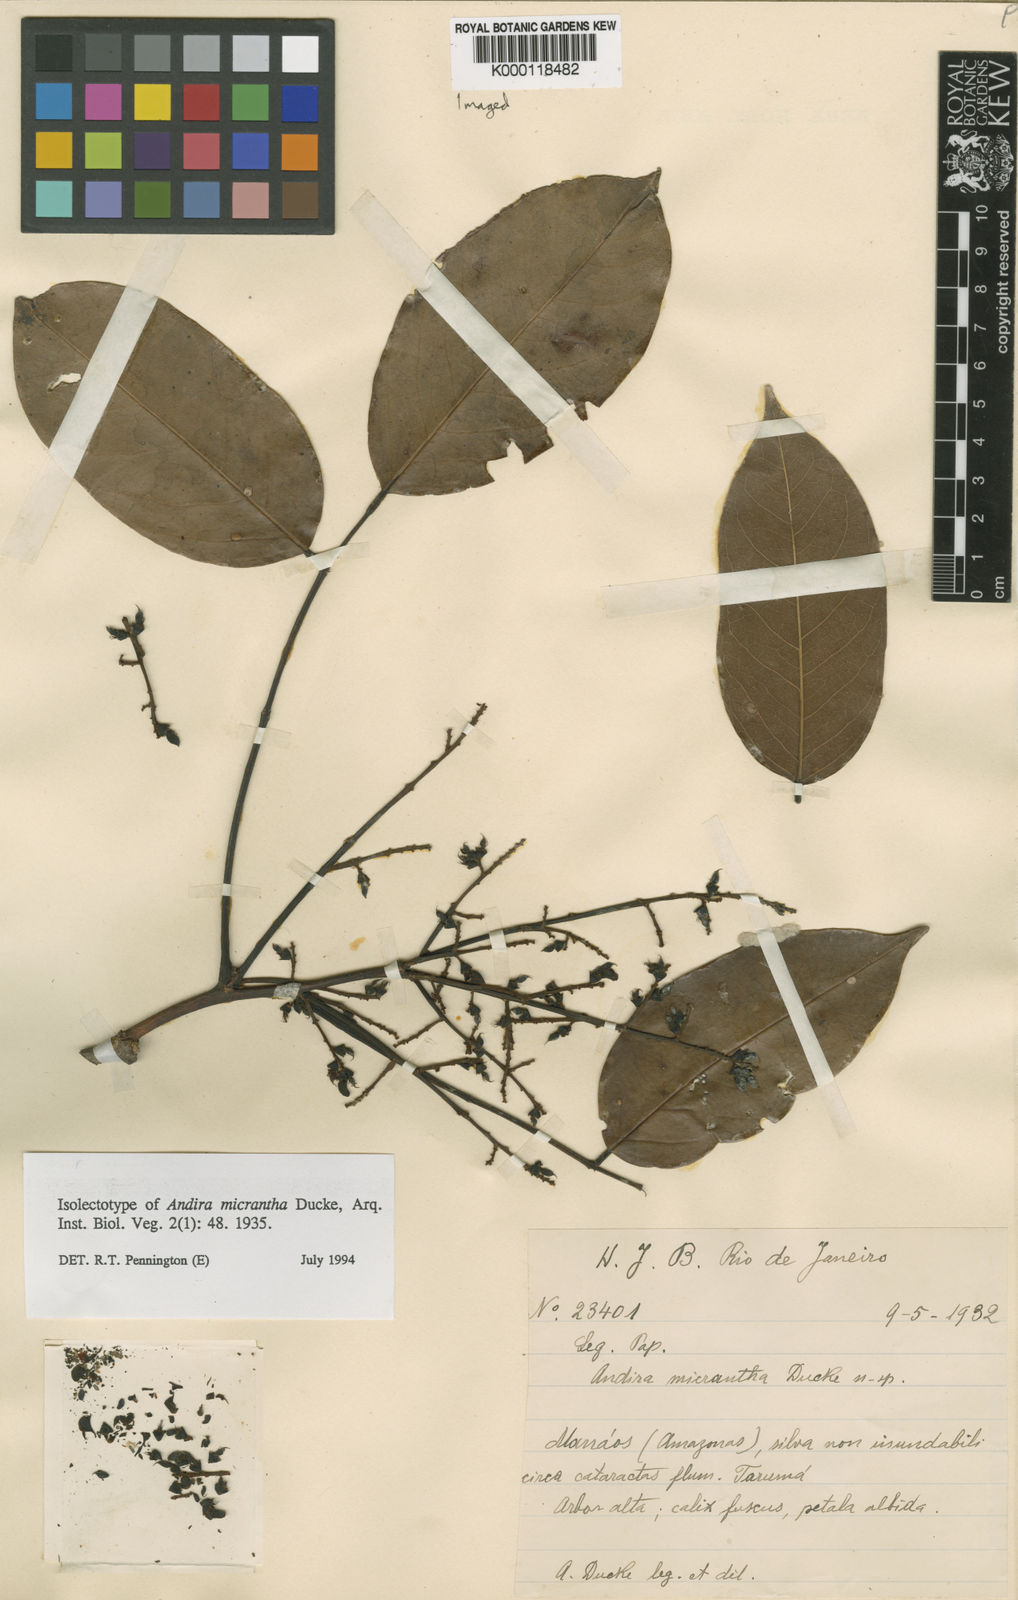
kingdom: Plantae
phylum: Tracheophyta
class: Magnoliopsida
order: Fabales
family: Fabaceae
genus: Andira
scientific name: Andira micrantha
